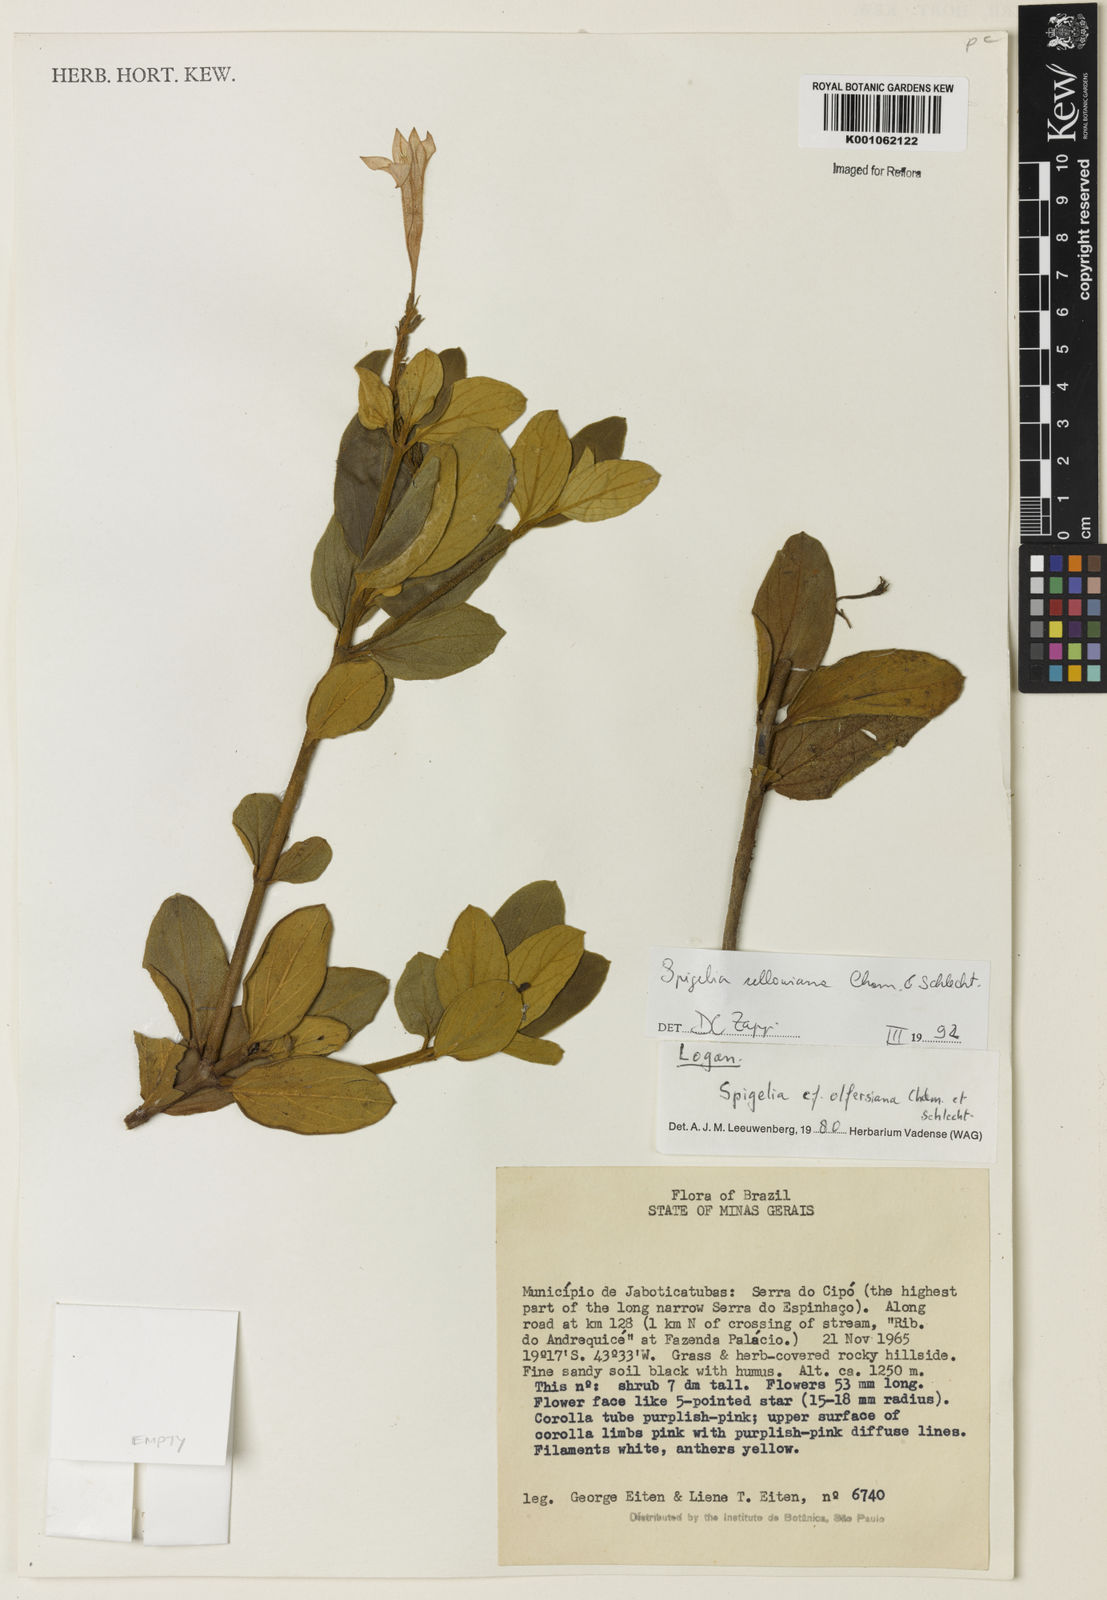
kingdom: Plantae
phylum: Tracheophyta
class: Magnoliopsida
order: Gentianales
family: Loganiaceae
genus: Spigelia
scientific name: Spigelia sellowiana
